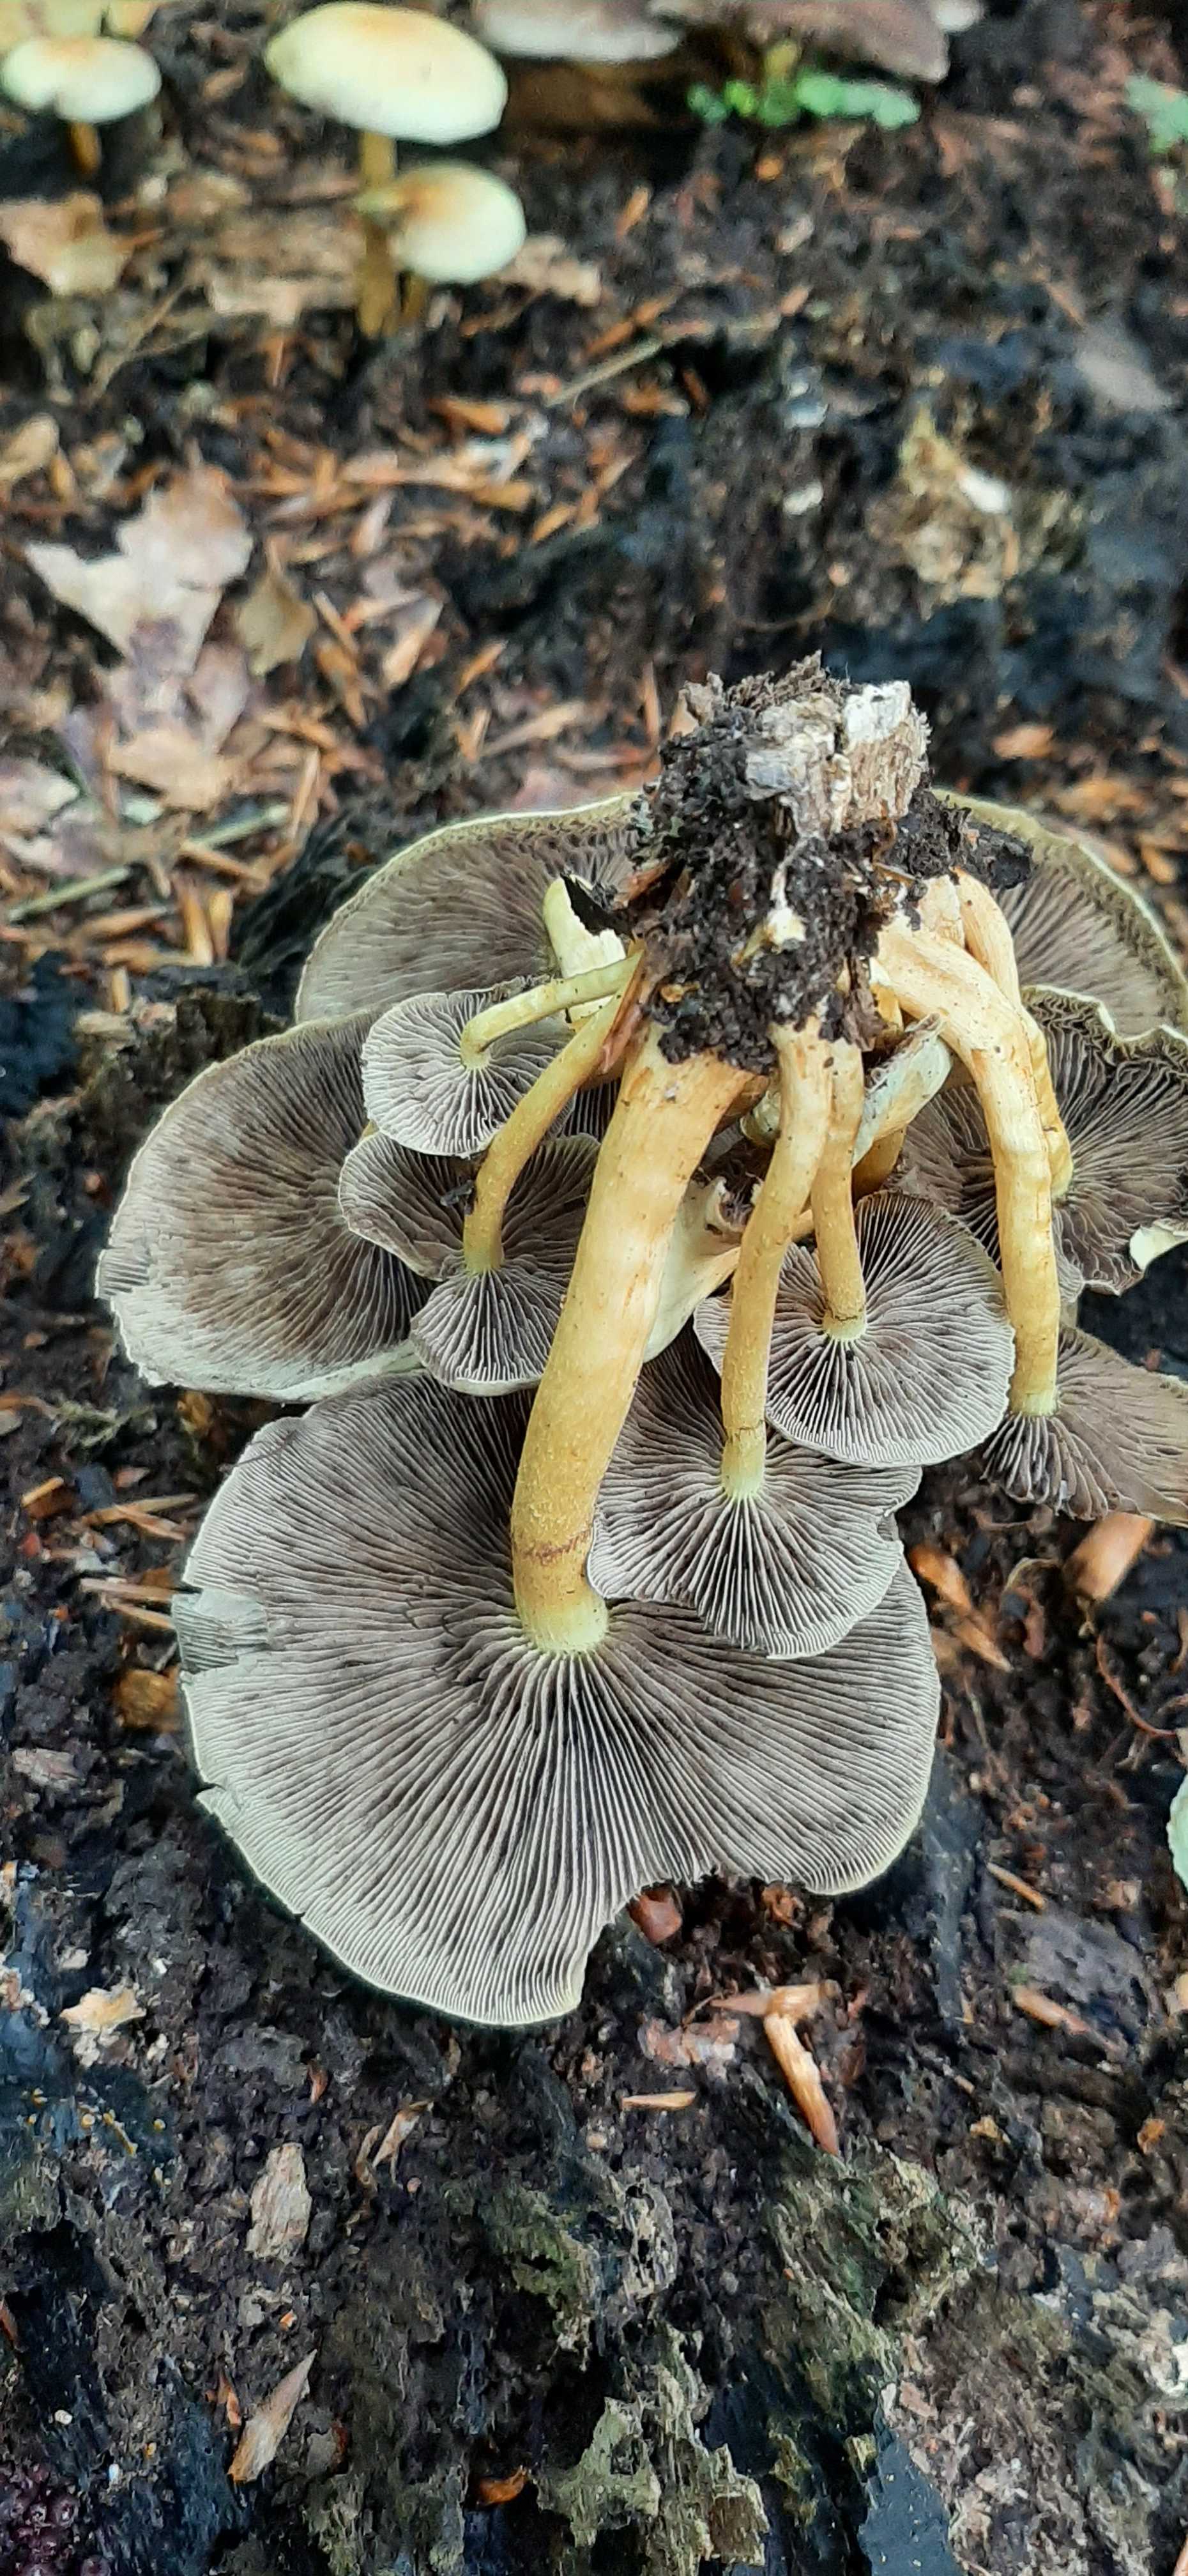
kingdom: Fungi
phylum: Basidiomycota
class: Agaricomycetes
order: Agaricales
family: Strophariaceae
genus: Hypholoma
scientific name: Hypholoma fasciculare
